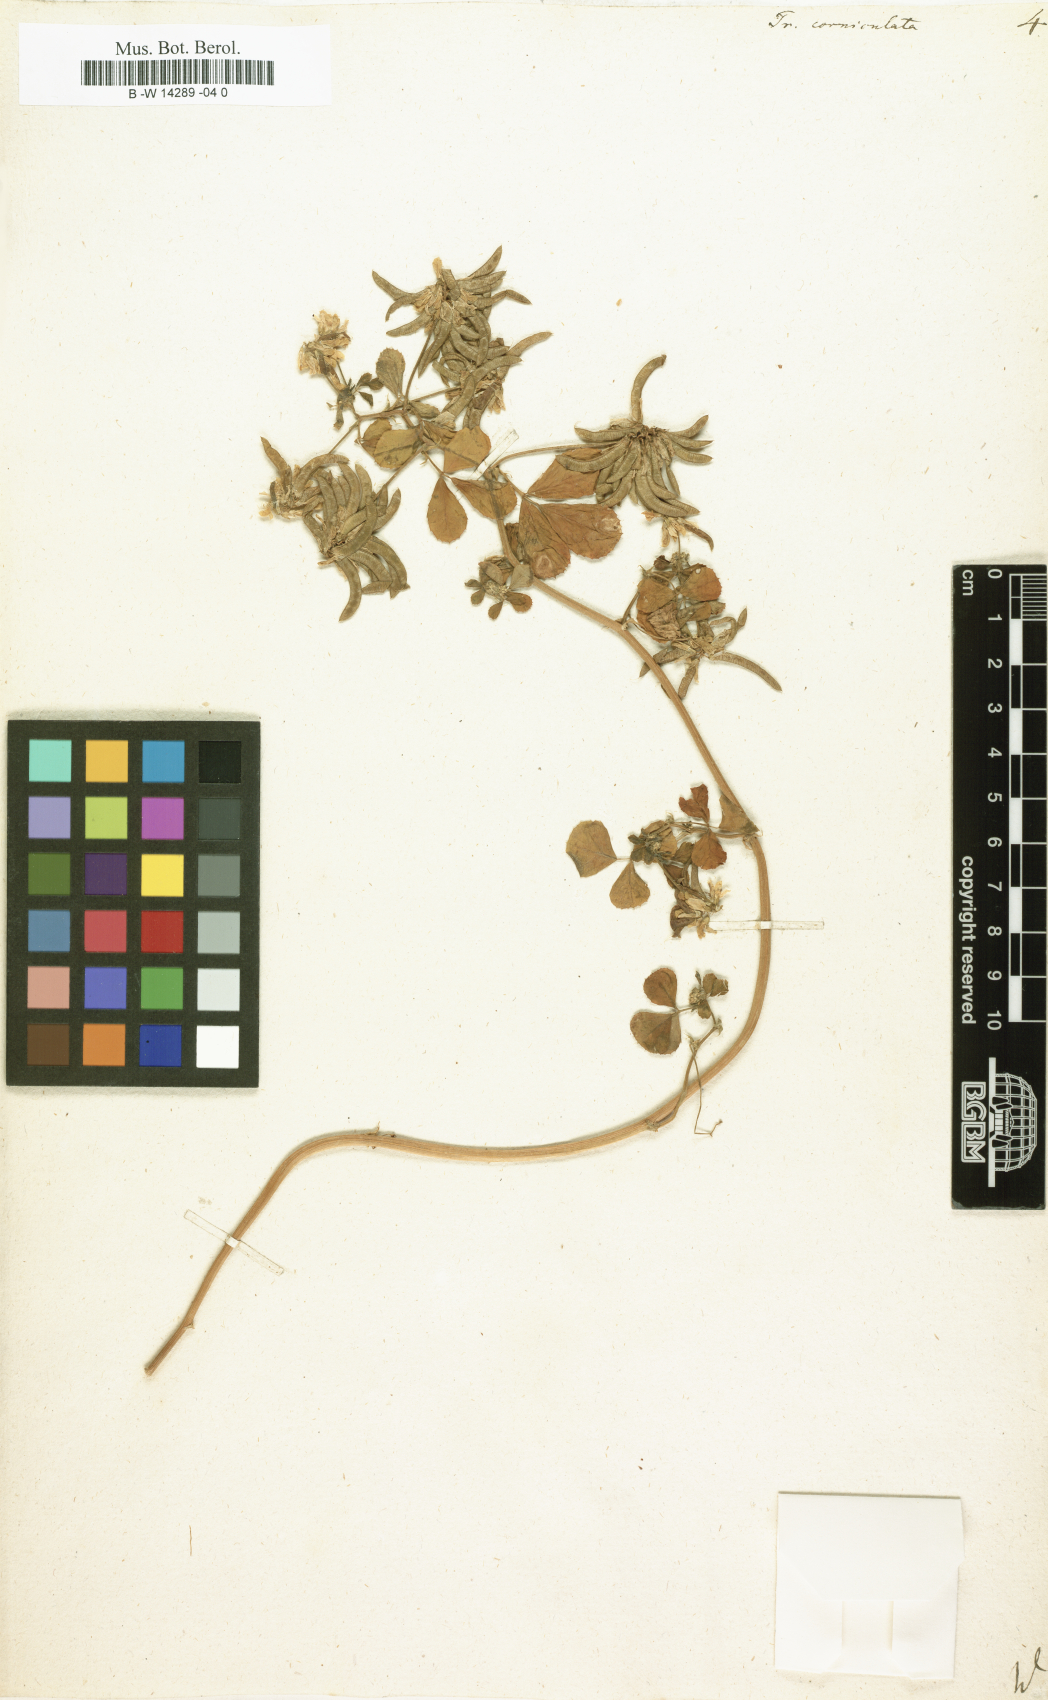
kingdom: Plantae
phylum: Tracheophyta
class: Magnoliopsida
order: Fabales
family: Fabaceae
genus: Trigonella
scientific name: Trigonella balansae
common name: Sickle-fruited fenugreek
